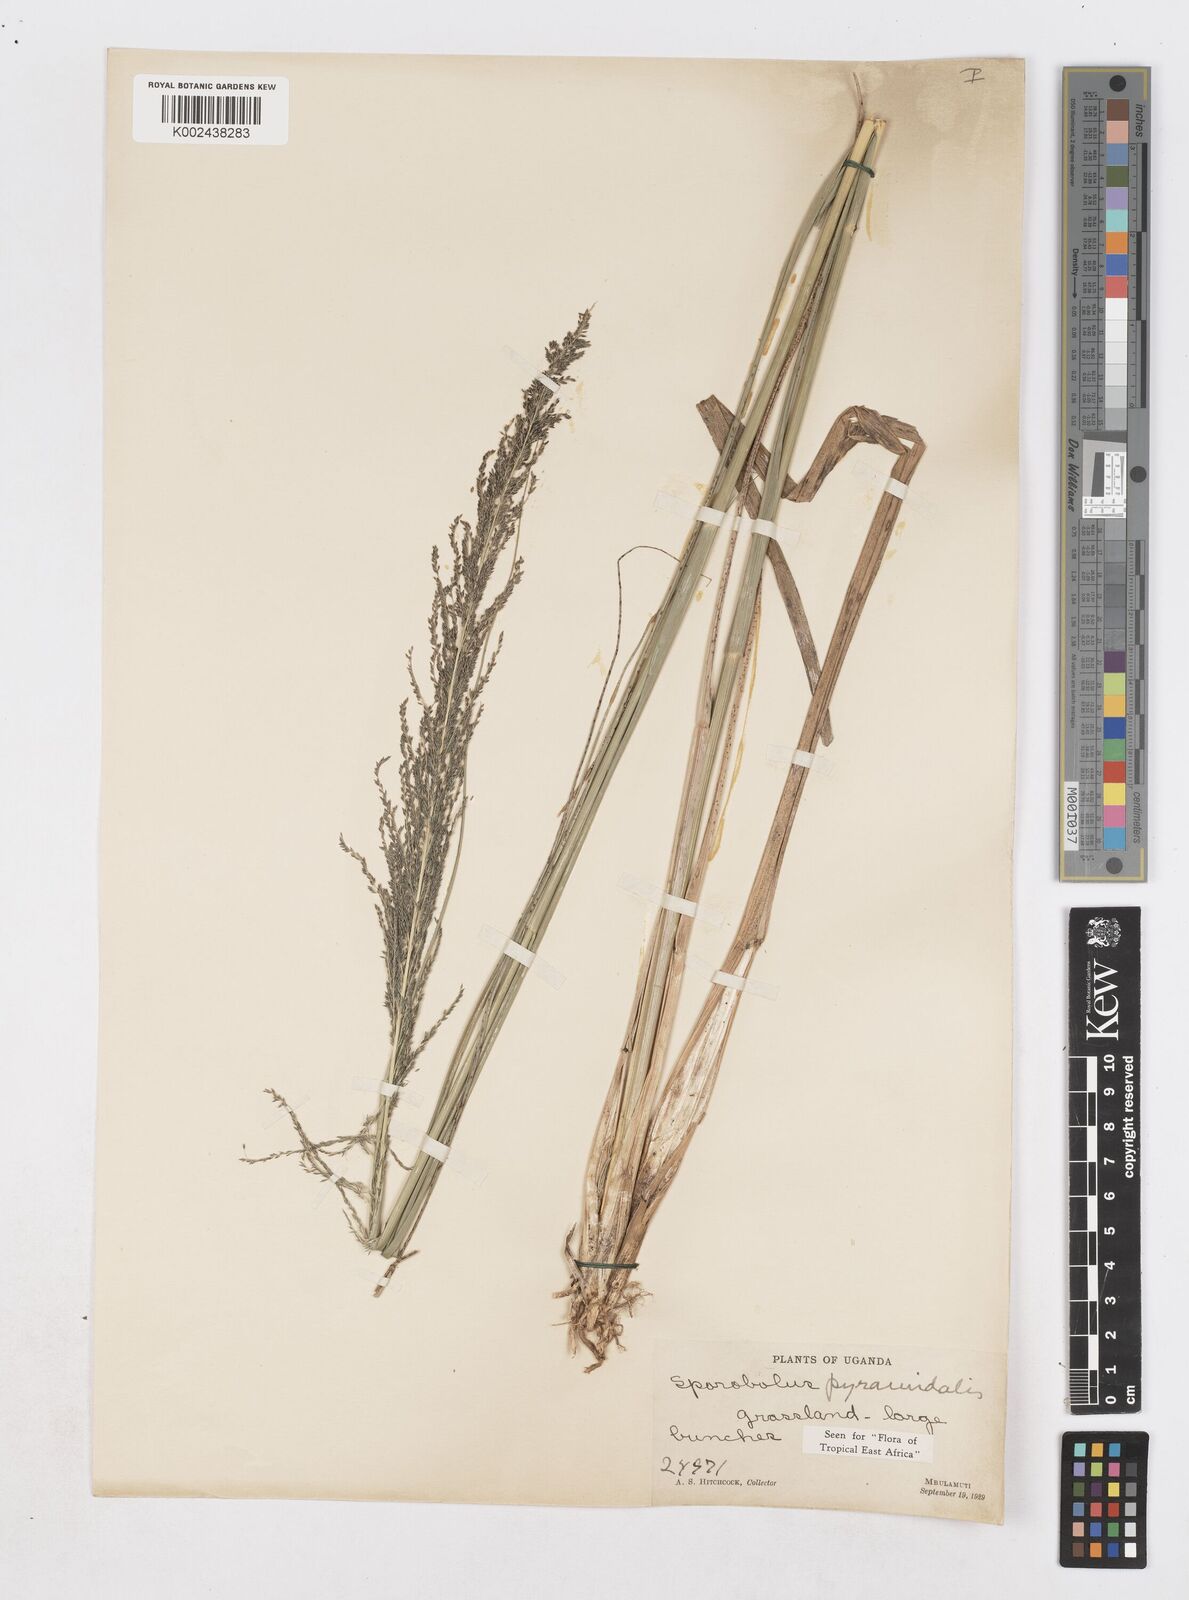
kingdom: Plantae
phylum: Tracheophyta
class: Liliopsida
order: Poales
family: Poaceae
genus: Sporobolus
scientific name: Sporobolus pyramidalis
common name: West indian dropseed
